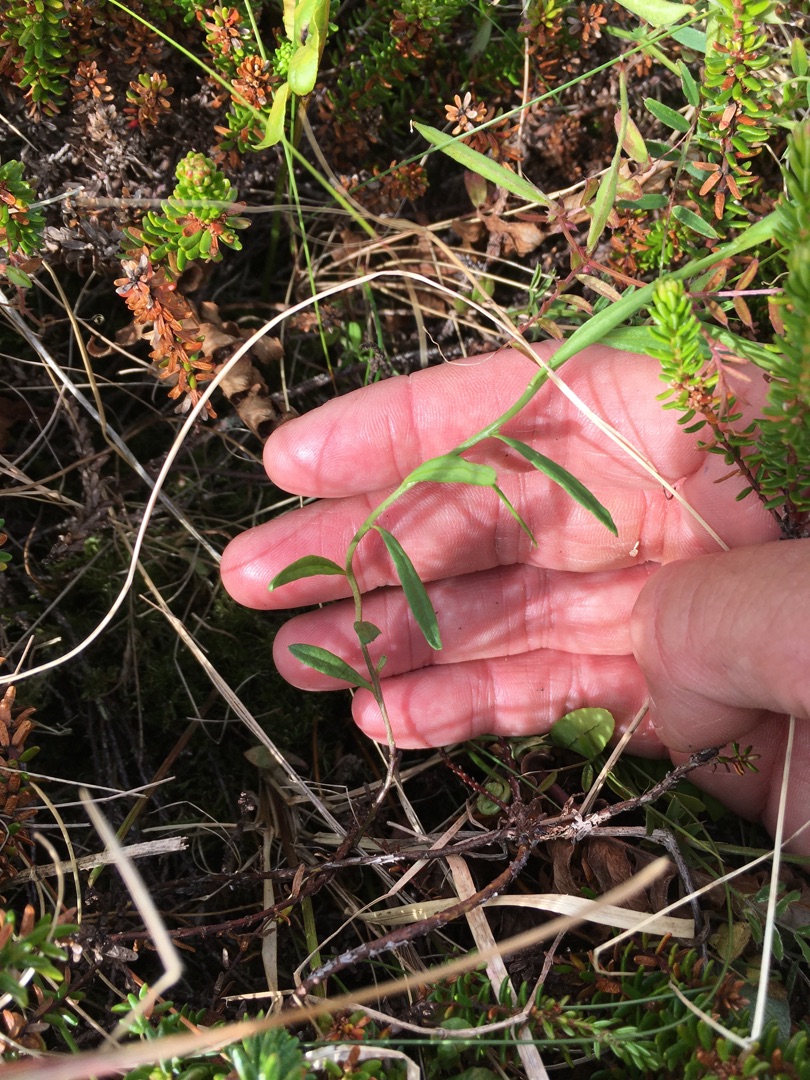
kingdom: Plantae
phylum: Tracheophyta
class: Magnoliopsida
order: Fabales
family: Polygalaceae
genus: Polygala
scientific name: Polygala vulgaris
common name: Almindelig mælkeurt
